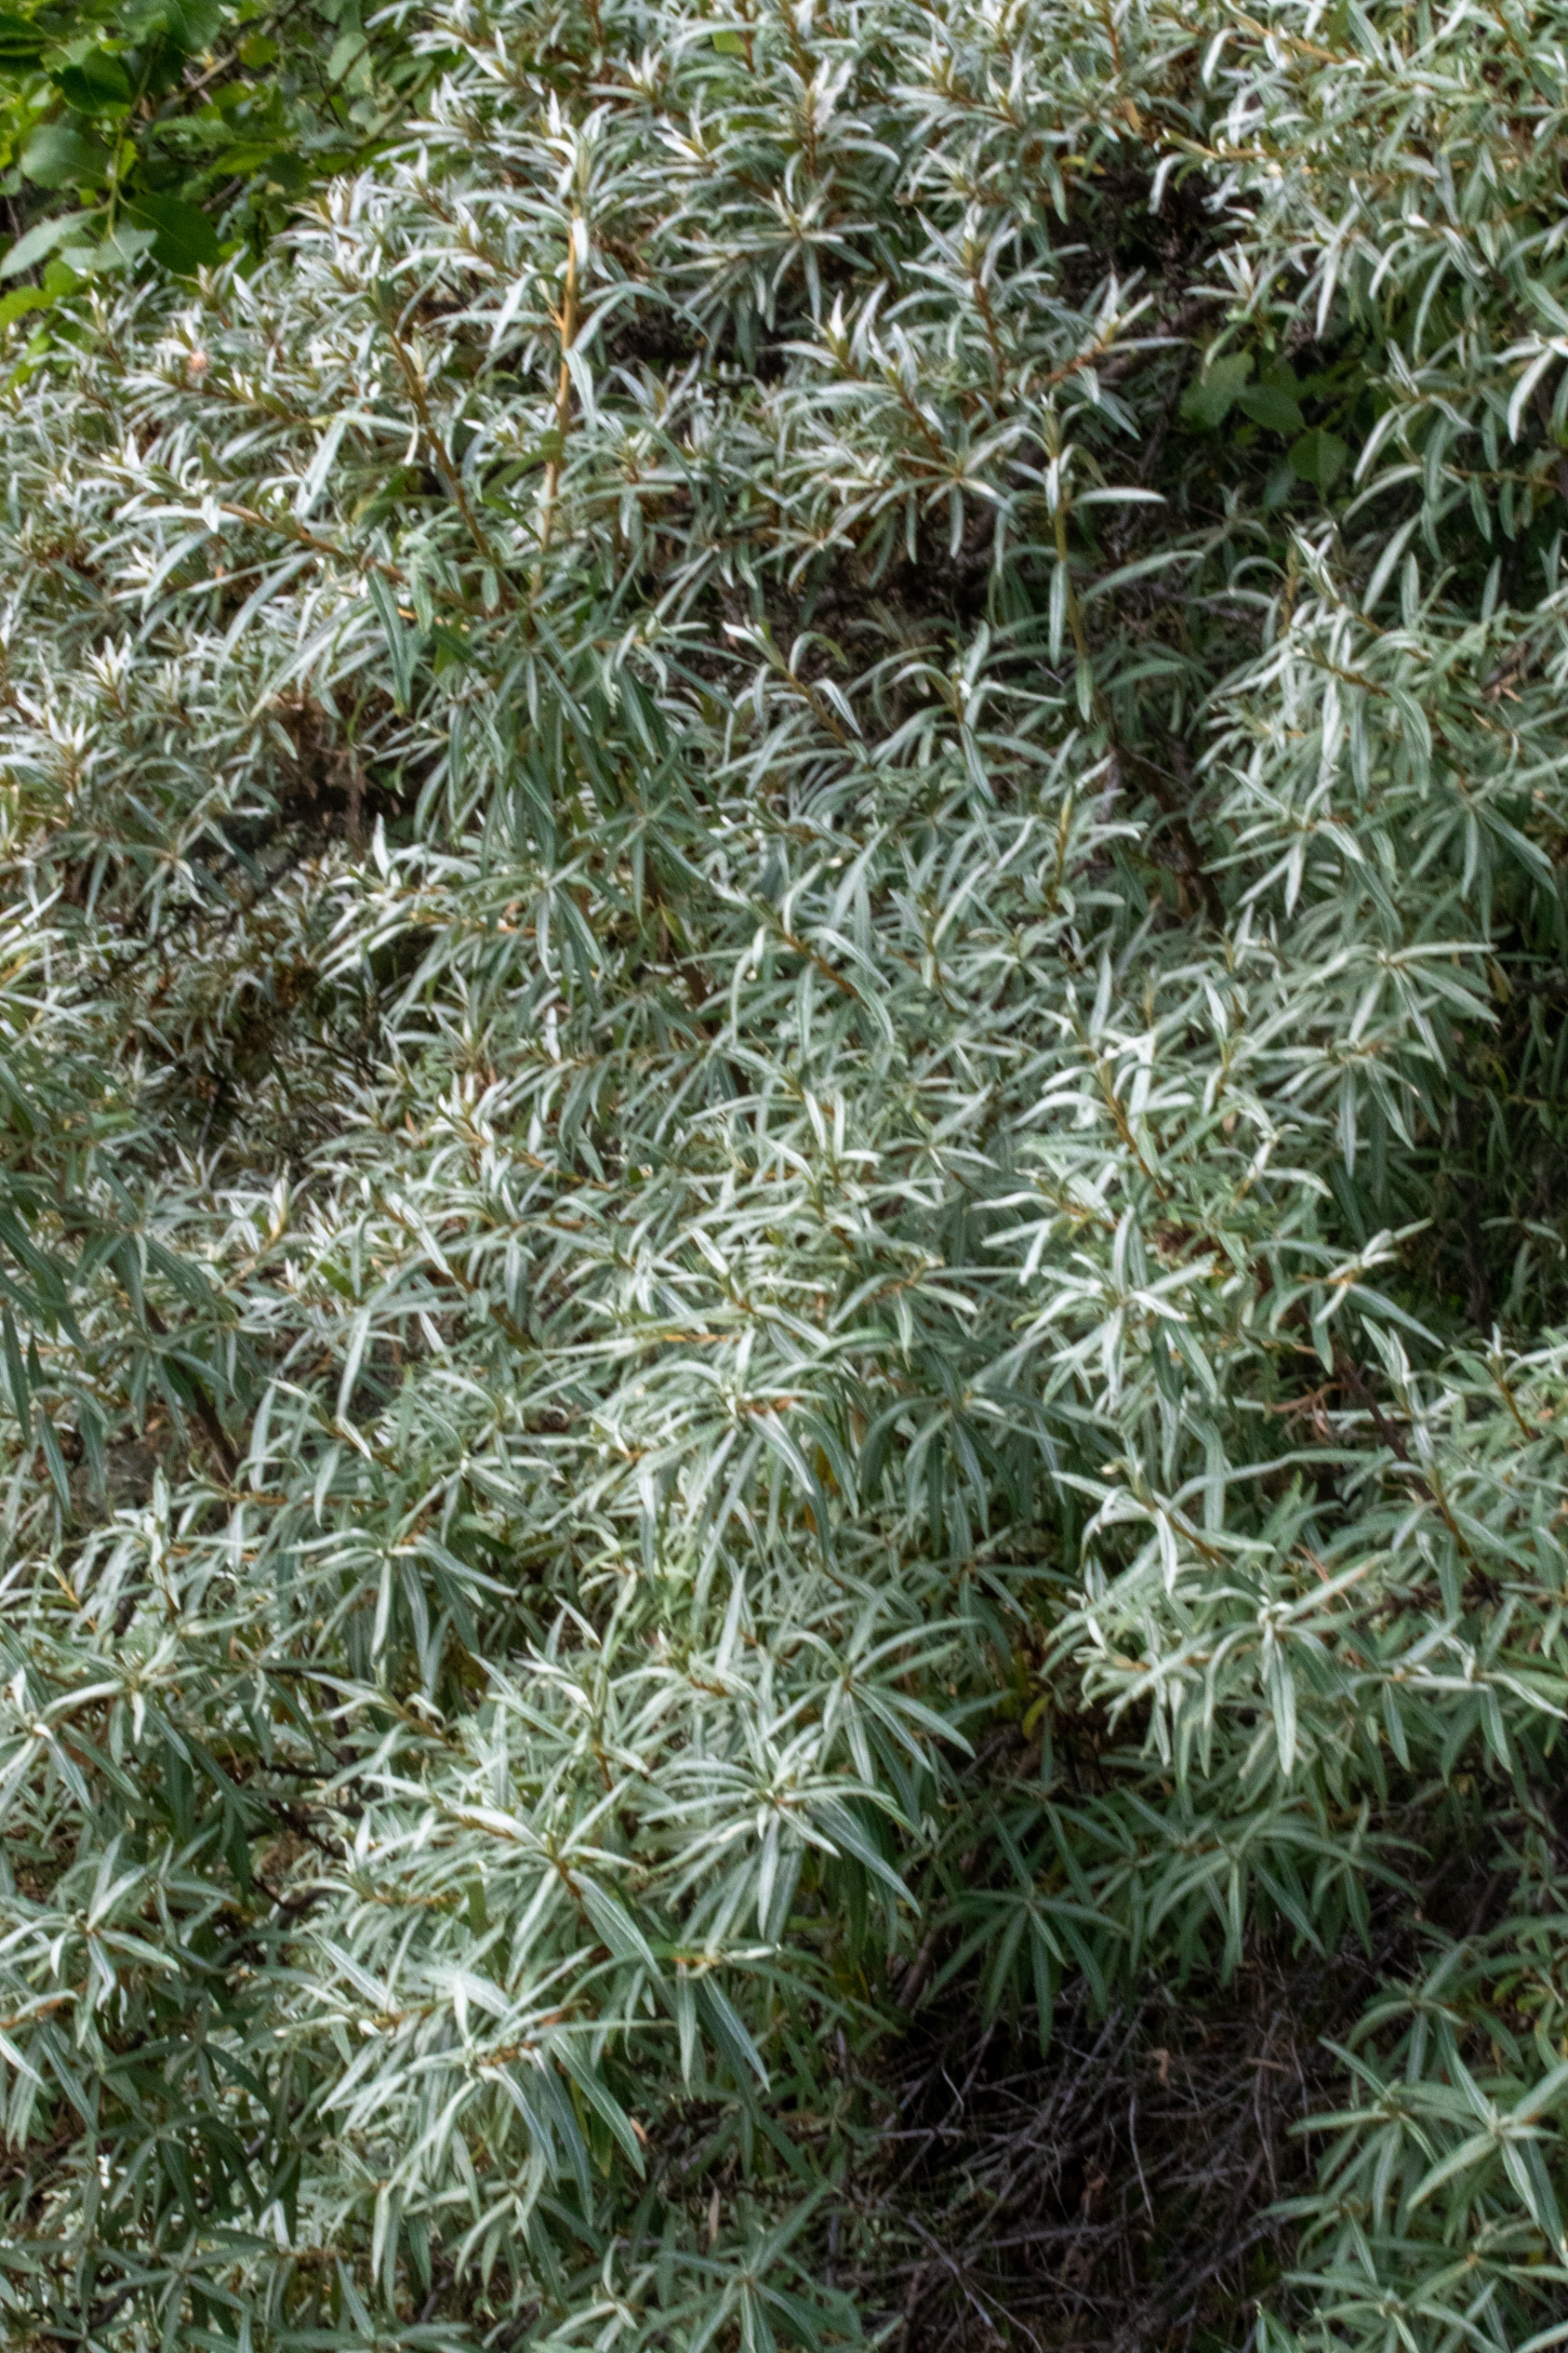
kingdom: Plantae
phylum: Tracheophyta
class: Magnoliopsida
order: Rosales
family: Elaeagnaceae
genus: Hippophae
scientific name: Hippophae rhamnoides
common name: Havtorn
